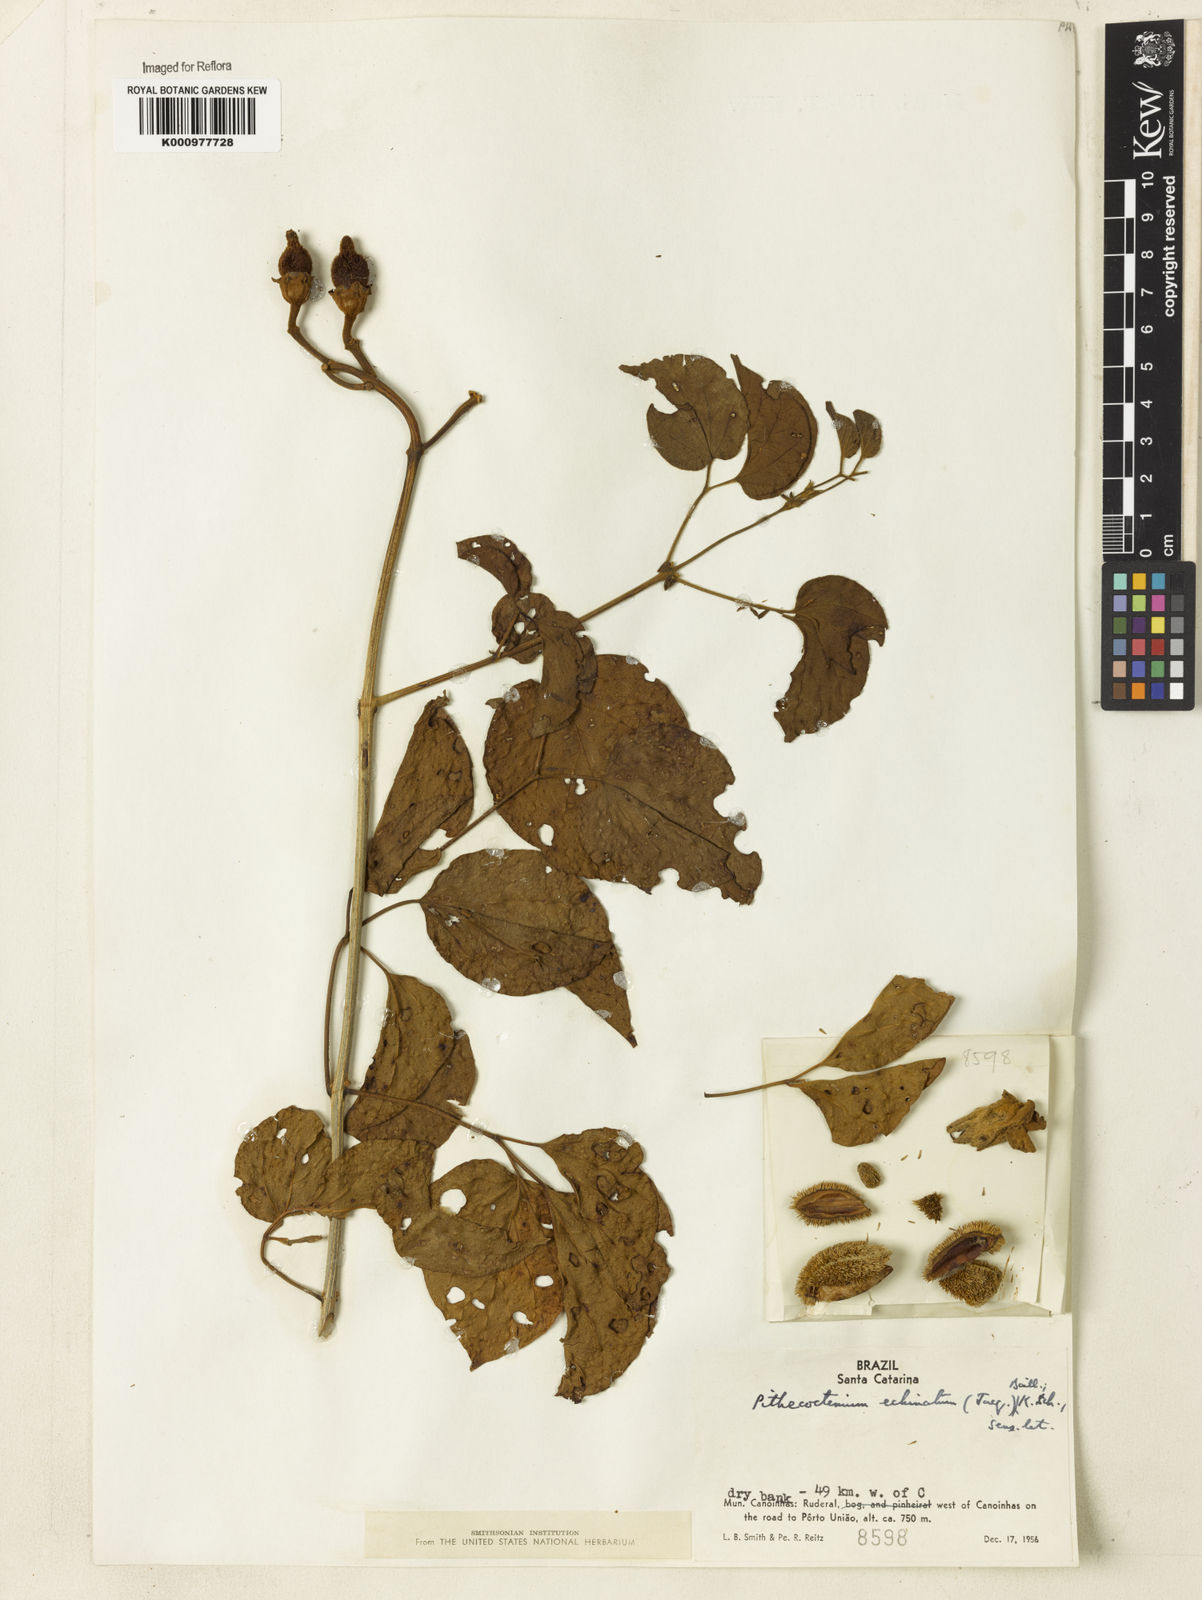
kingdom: Plantae
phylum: Tracheophyta
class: Magnoliopsida
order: Lamiales
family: Bignoniaceae
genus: Amphilophium
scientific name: Amphilophium crucigerum
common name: Monkey comb
